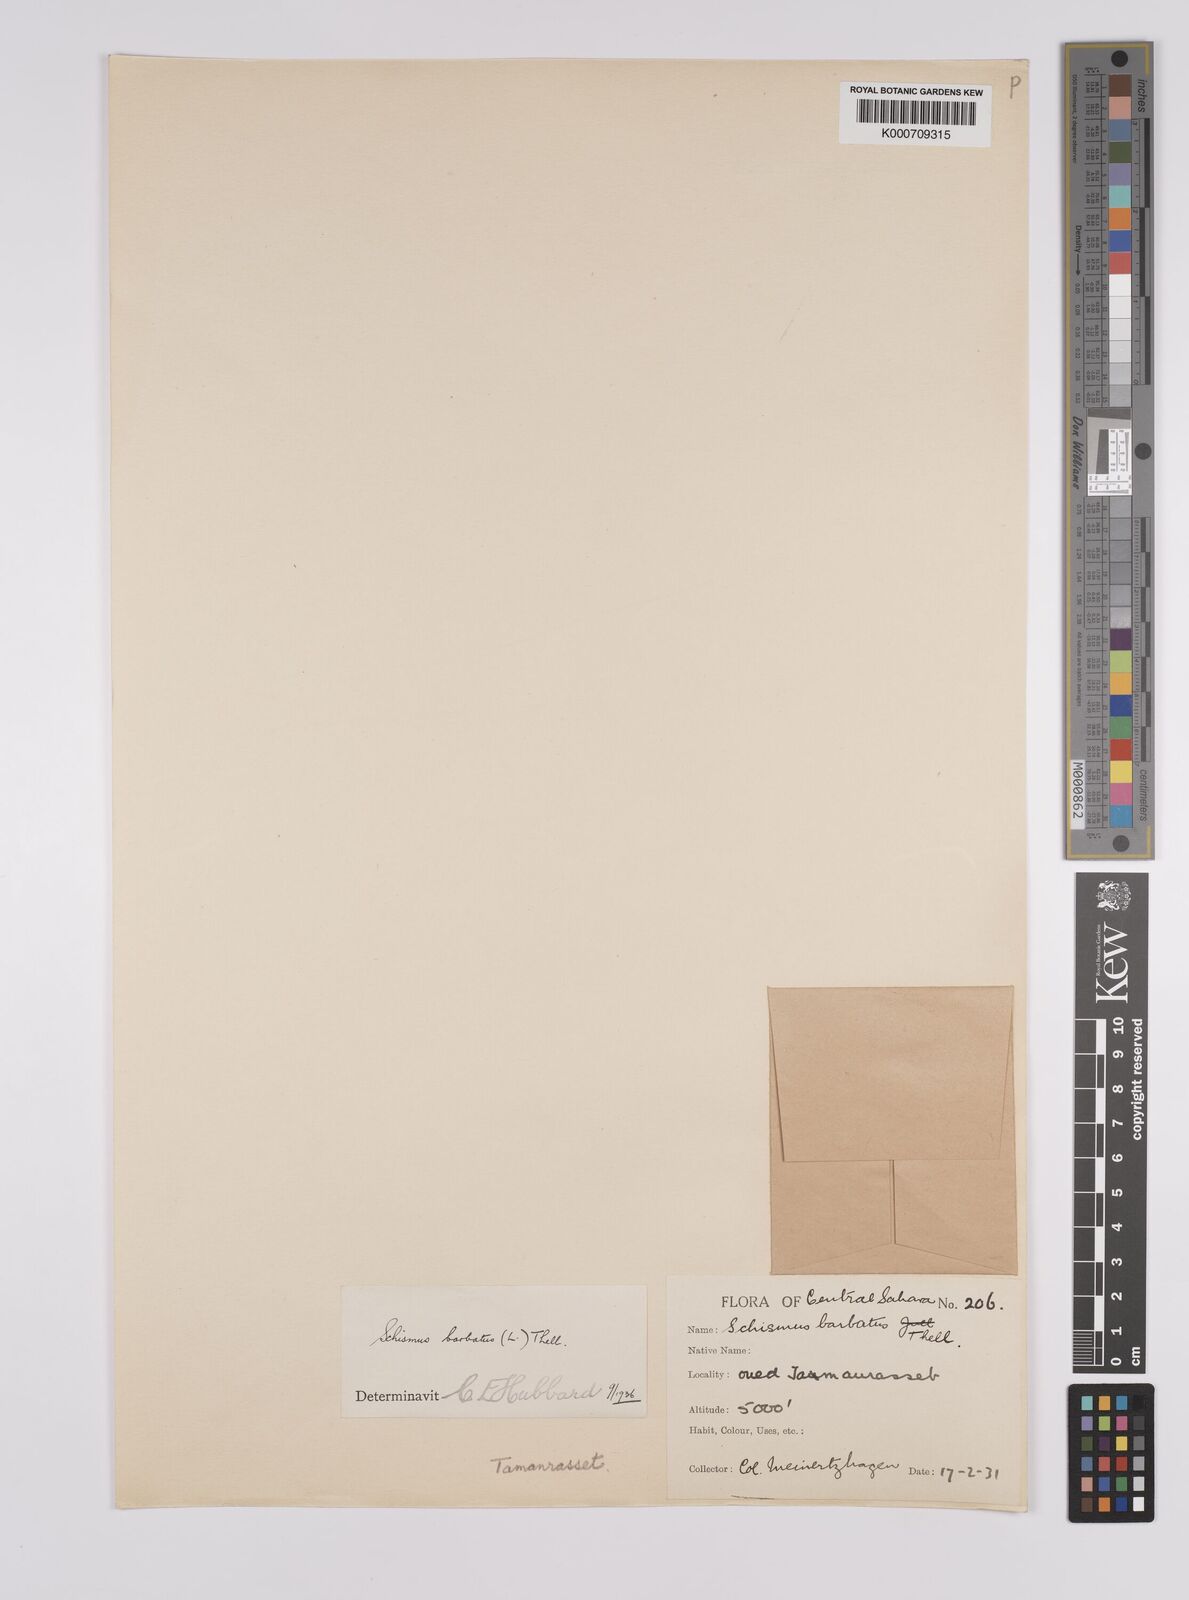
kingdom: Plantae
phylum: Tracheophyta
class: Liliopsida
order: Poales
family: Poaceae
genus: Schismus
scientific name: Schismus barbatus
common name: Kelch-grass
